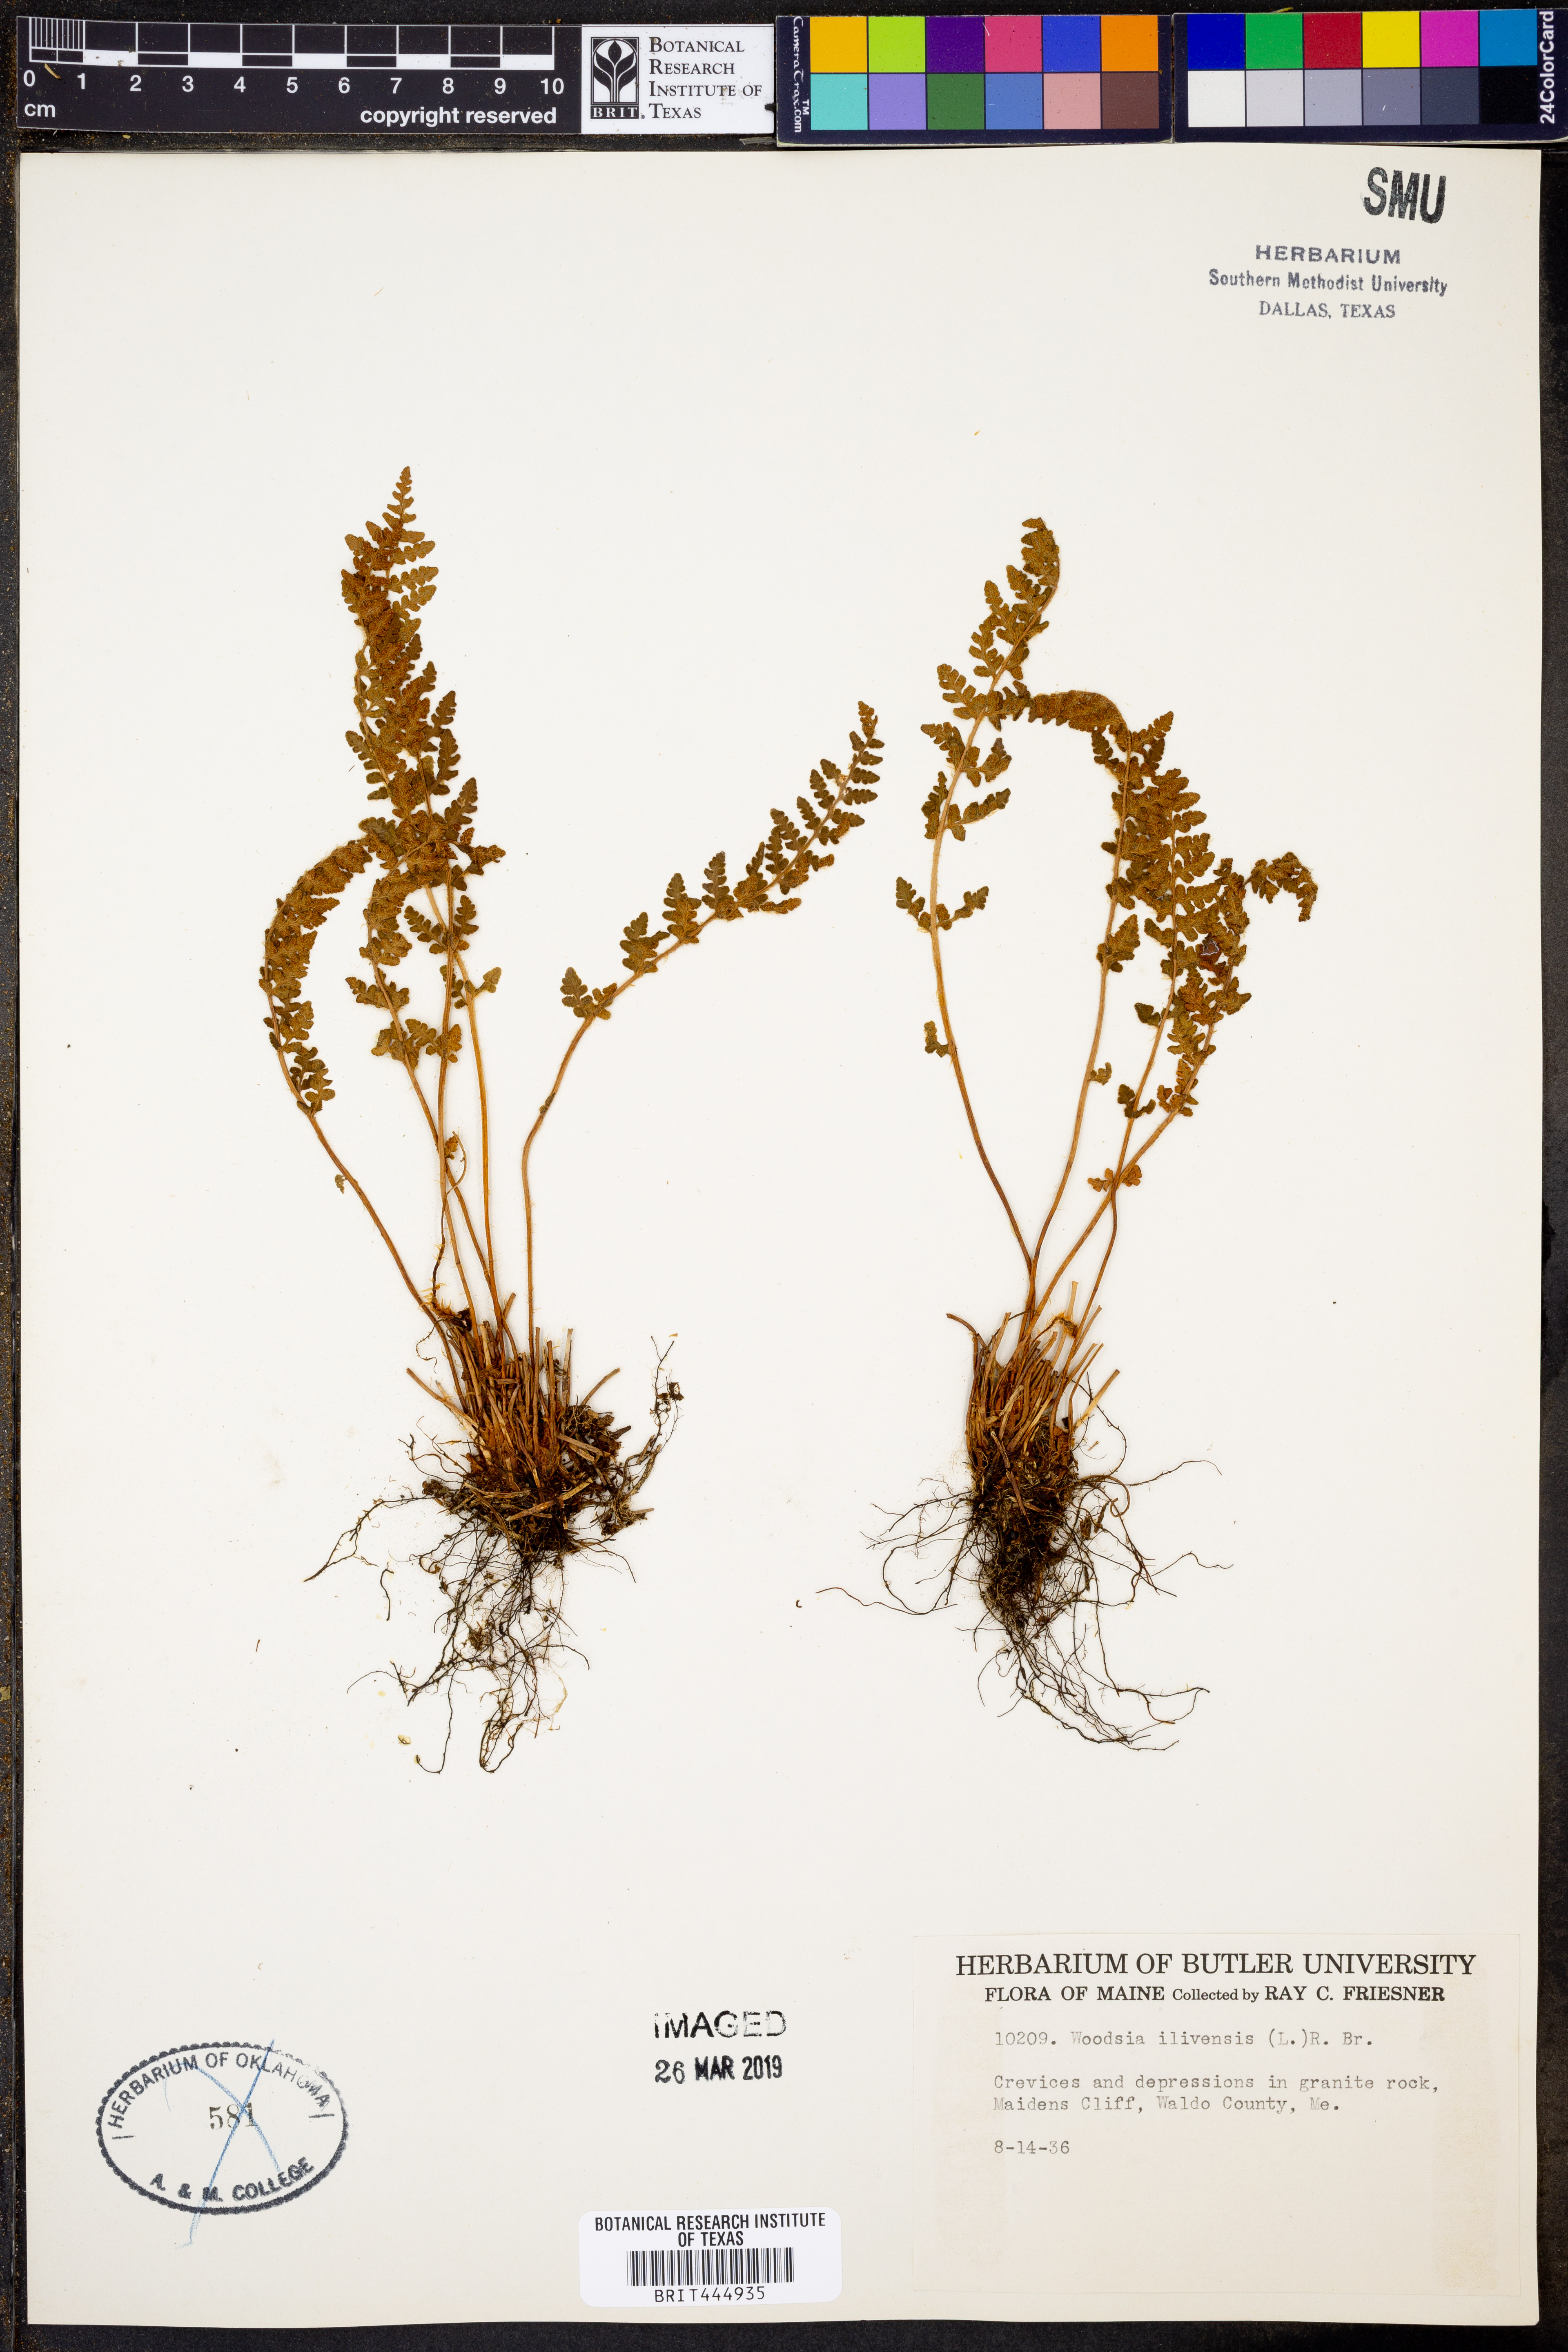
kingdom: Plantae
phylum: Tracheophyta
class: Polypodiopsida
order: Polypodiales
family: Woodsiaceae
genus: Woodsia
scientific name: Woodsia ilvensis
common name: Fragrant woodsia
